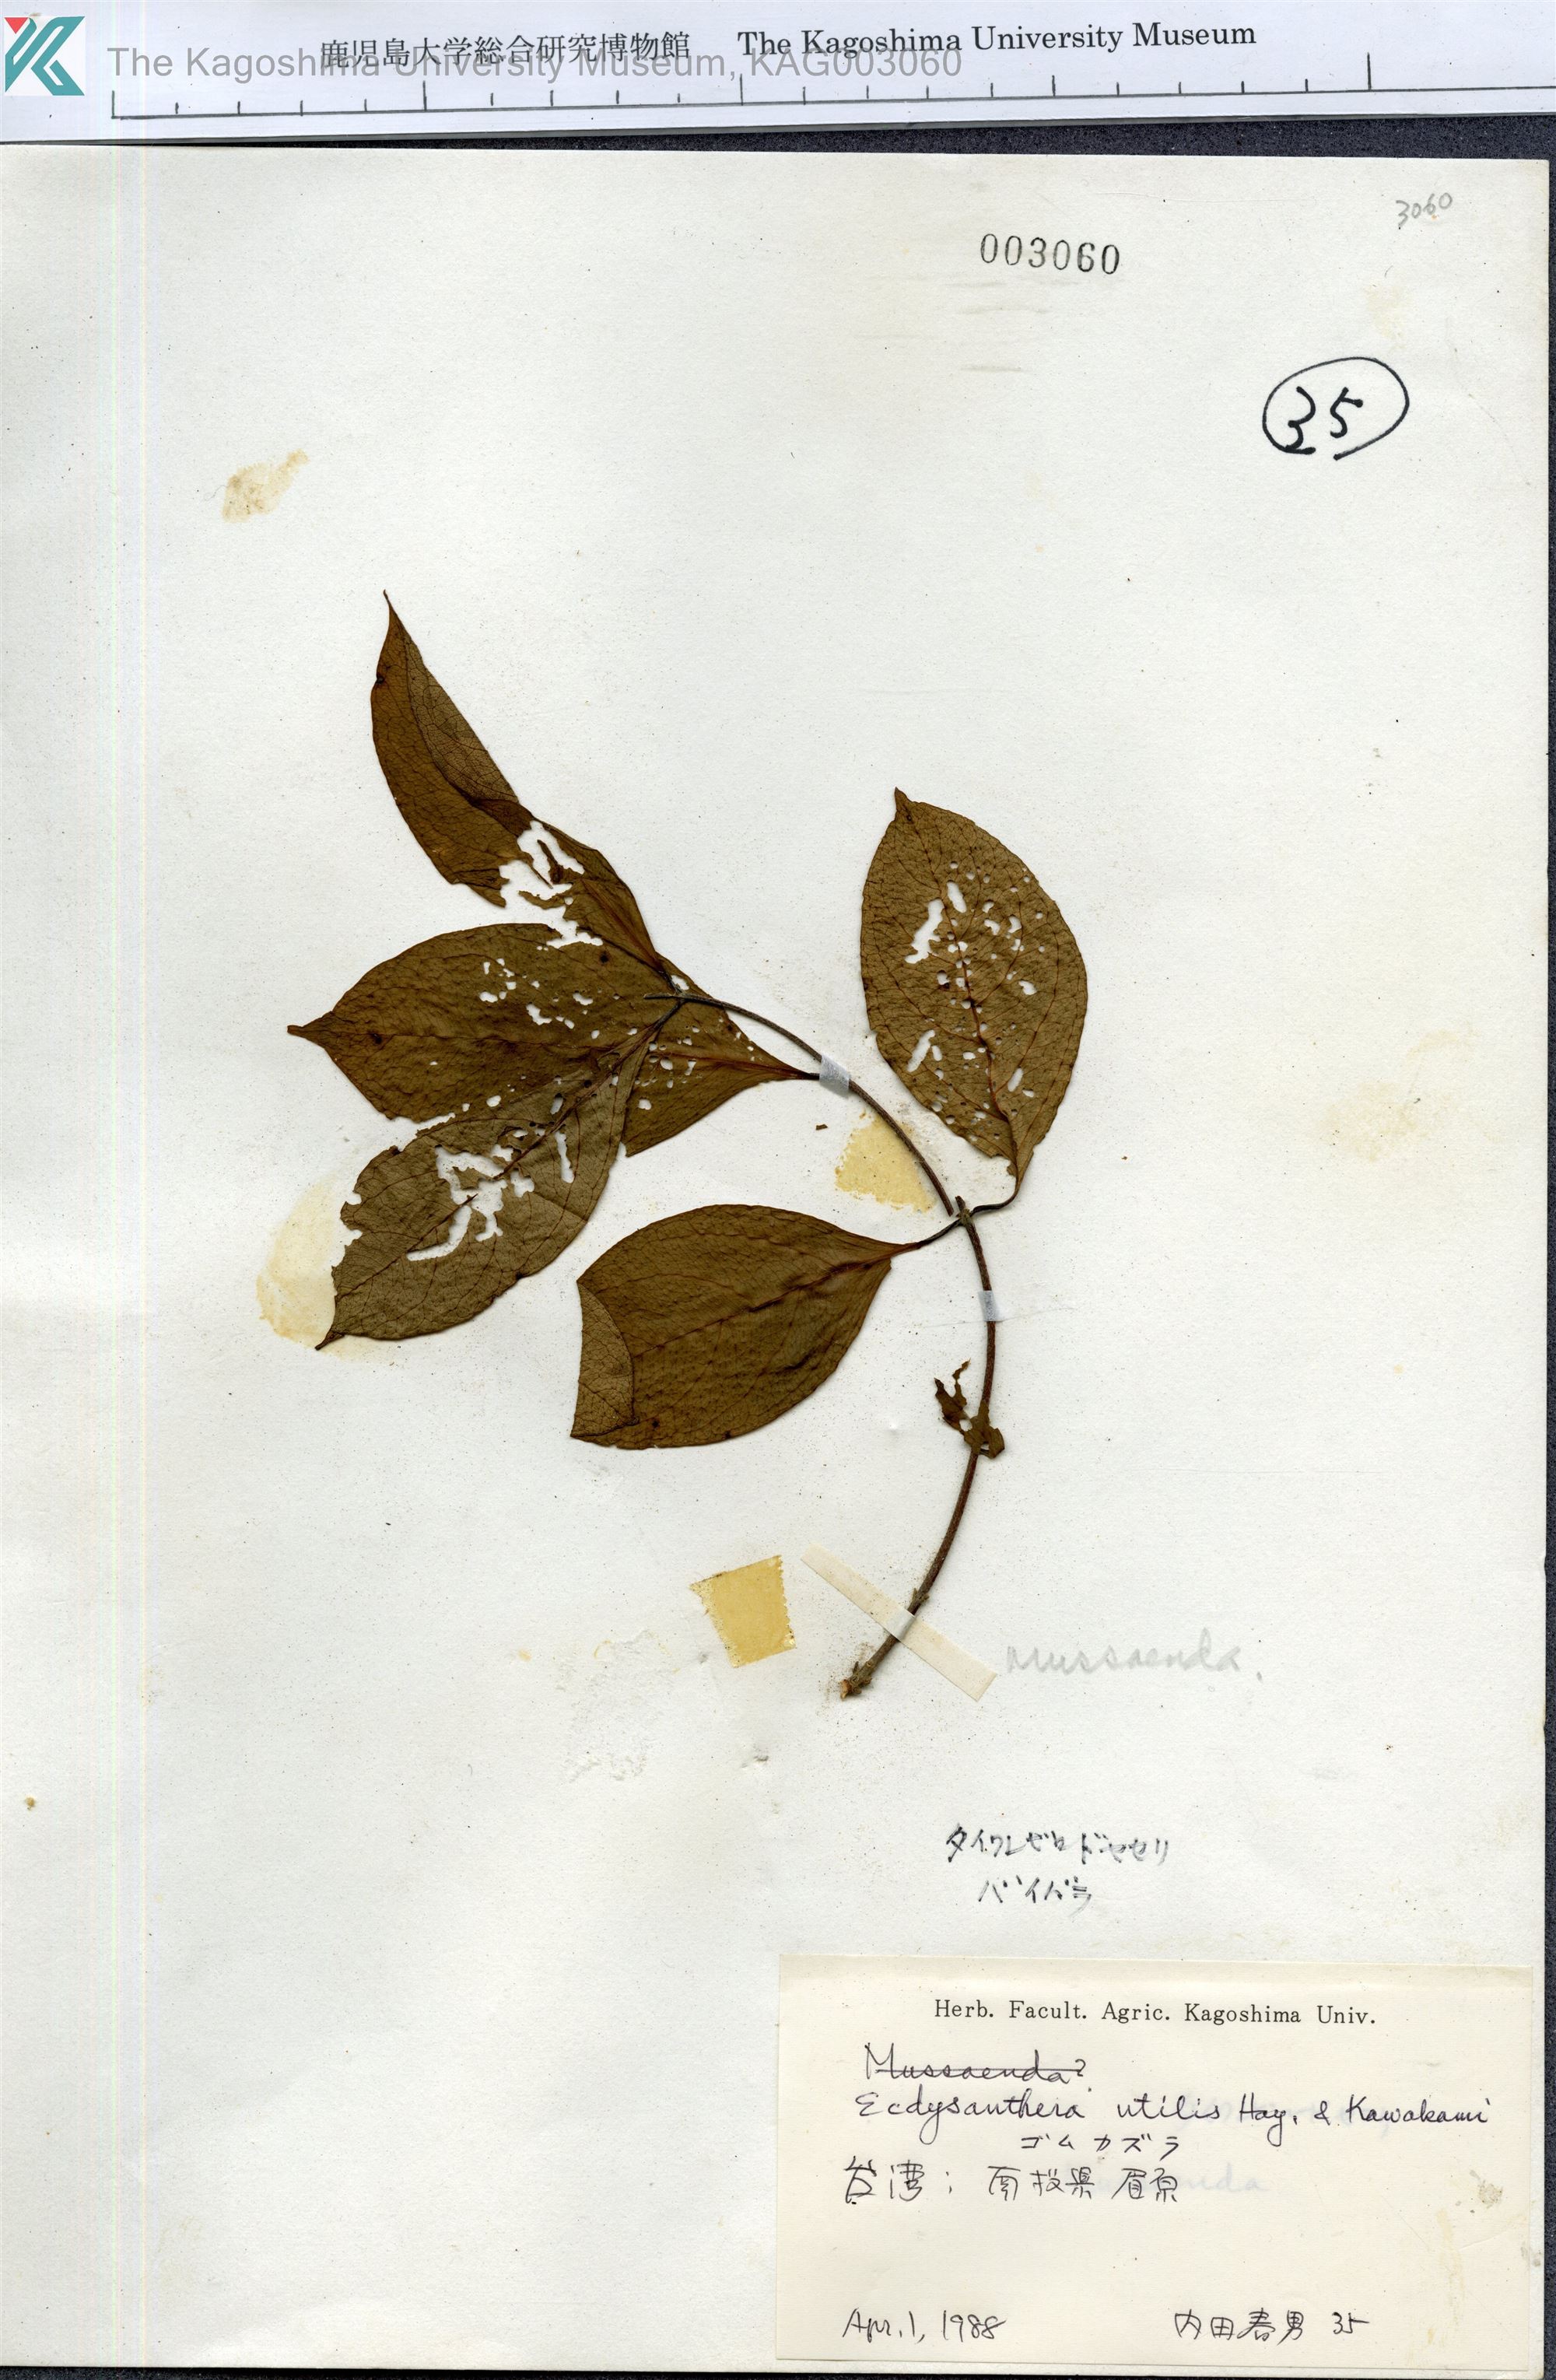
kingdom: Plantae
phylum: Tracheophyta
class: Magnoliopsida
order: Gentianales
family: Apocynaceae
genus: Urceola
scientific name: Urceola micrantha
